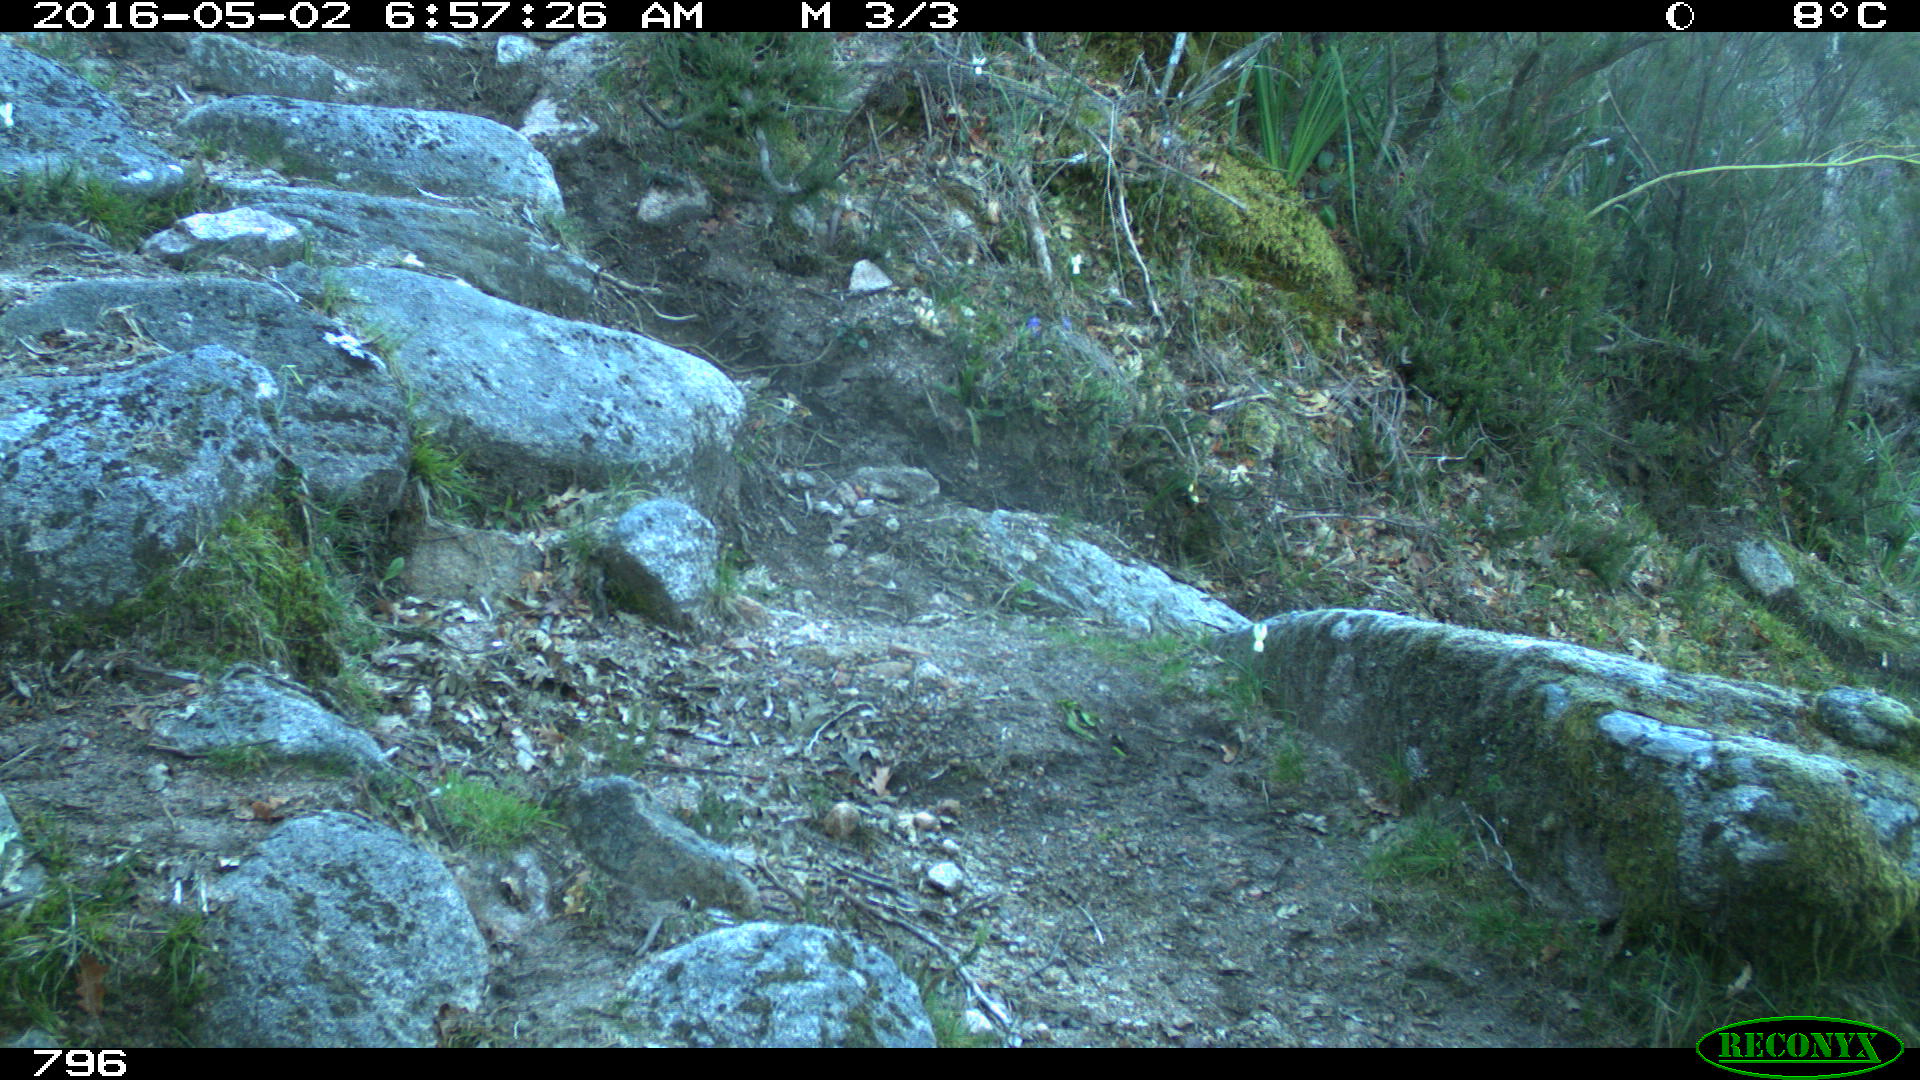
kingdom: Animalia
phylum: Chordata
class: Mammalia
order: Artiodactyla
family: Bovidae
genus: Bos
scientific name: Bos taurus
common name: Domesticated cattle
